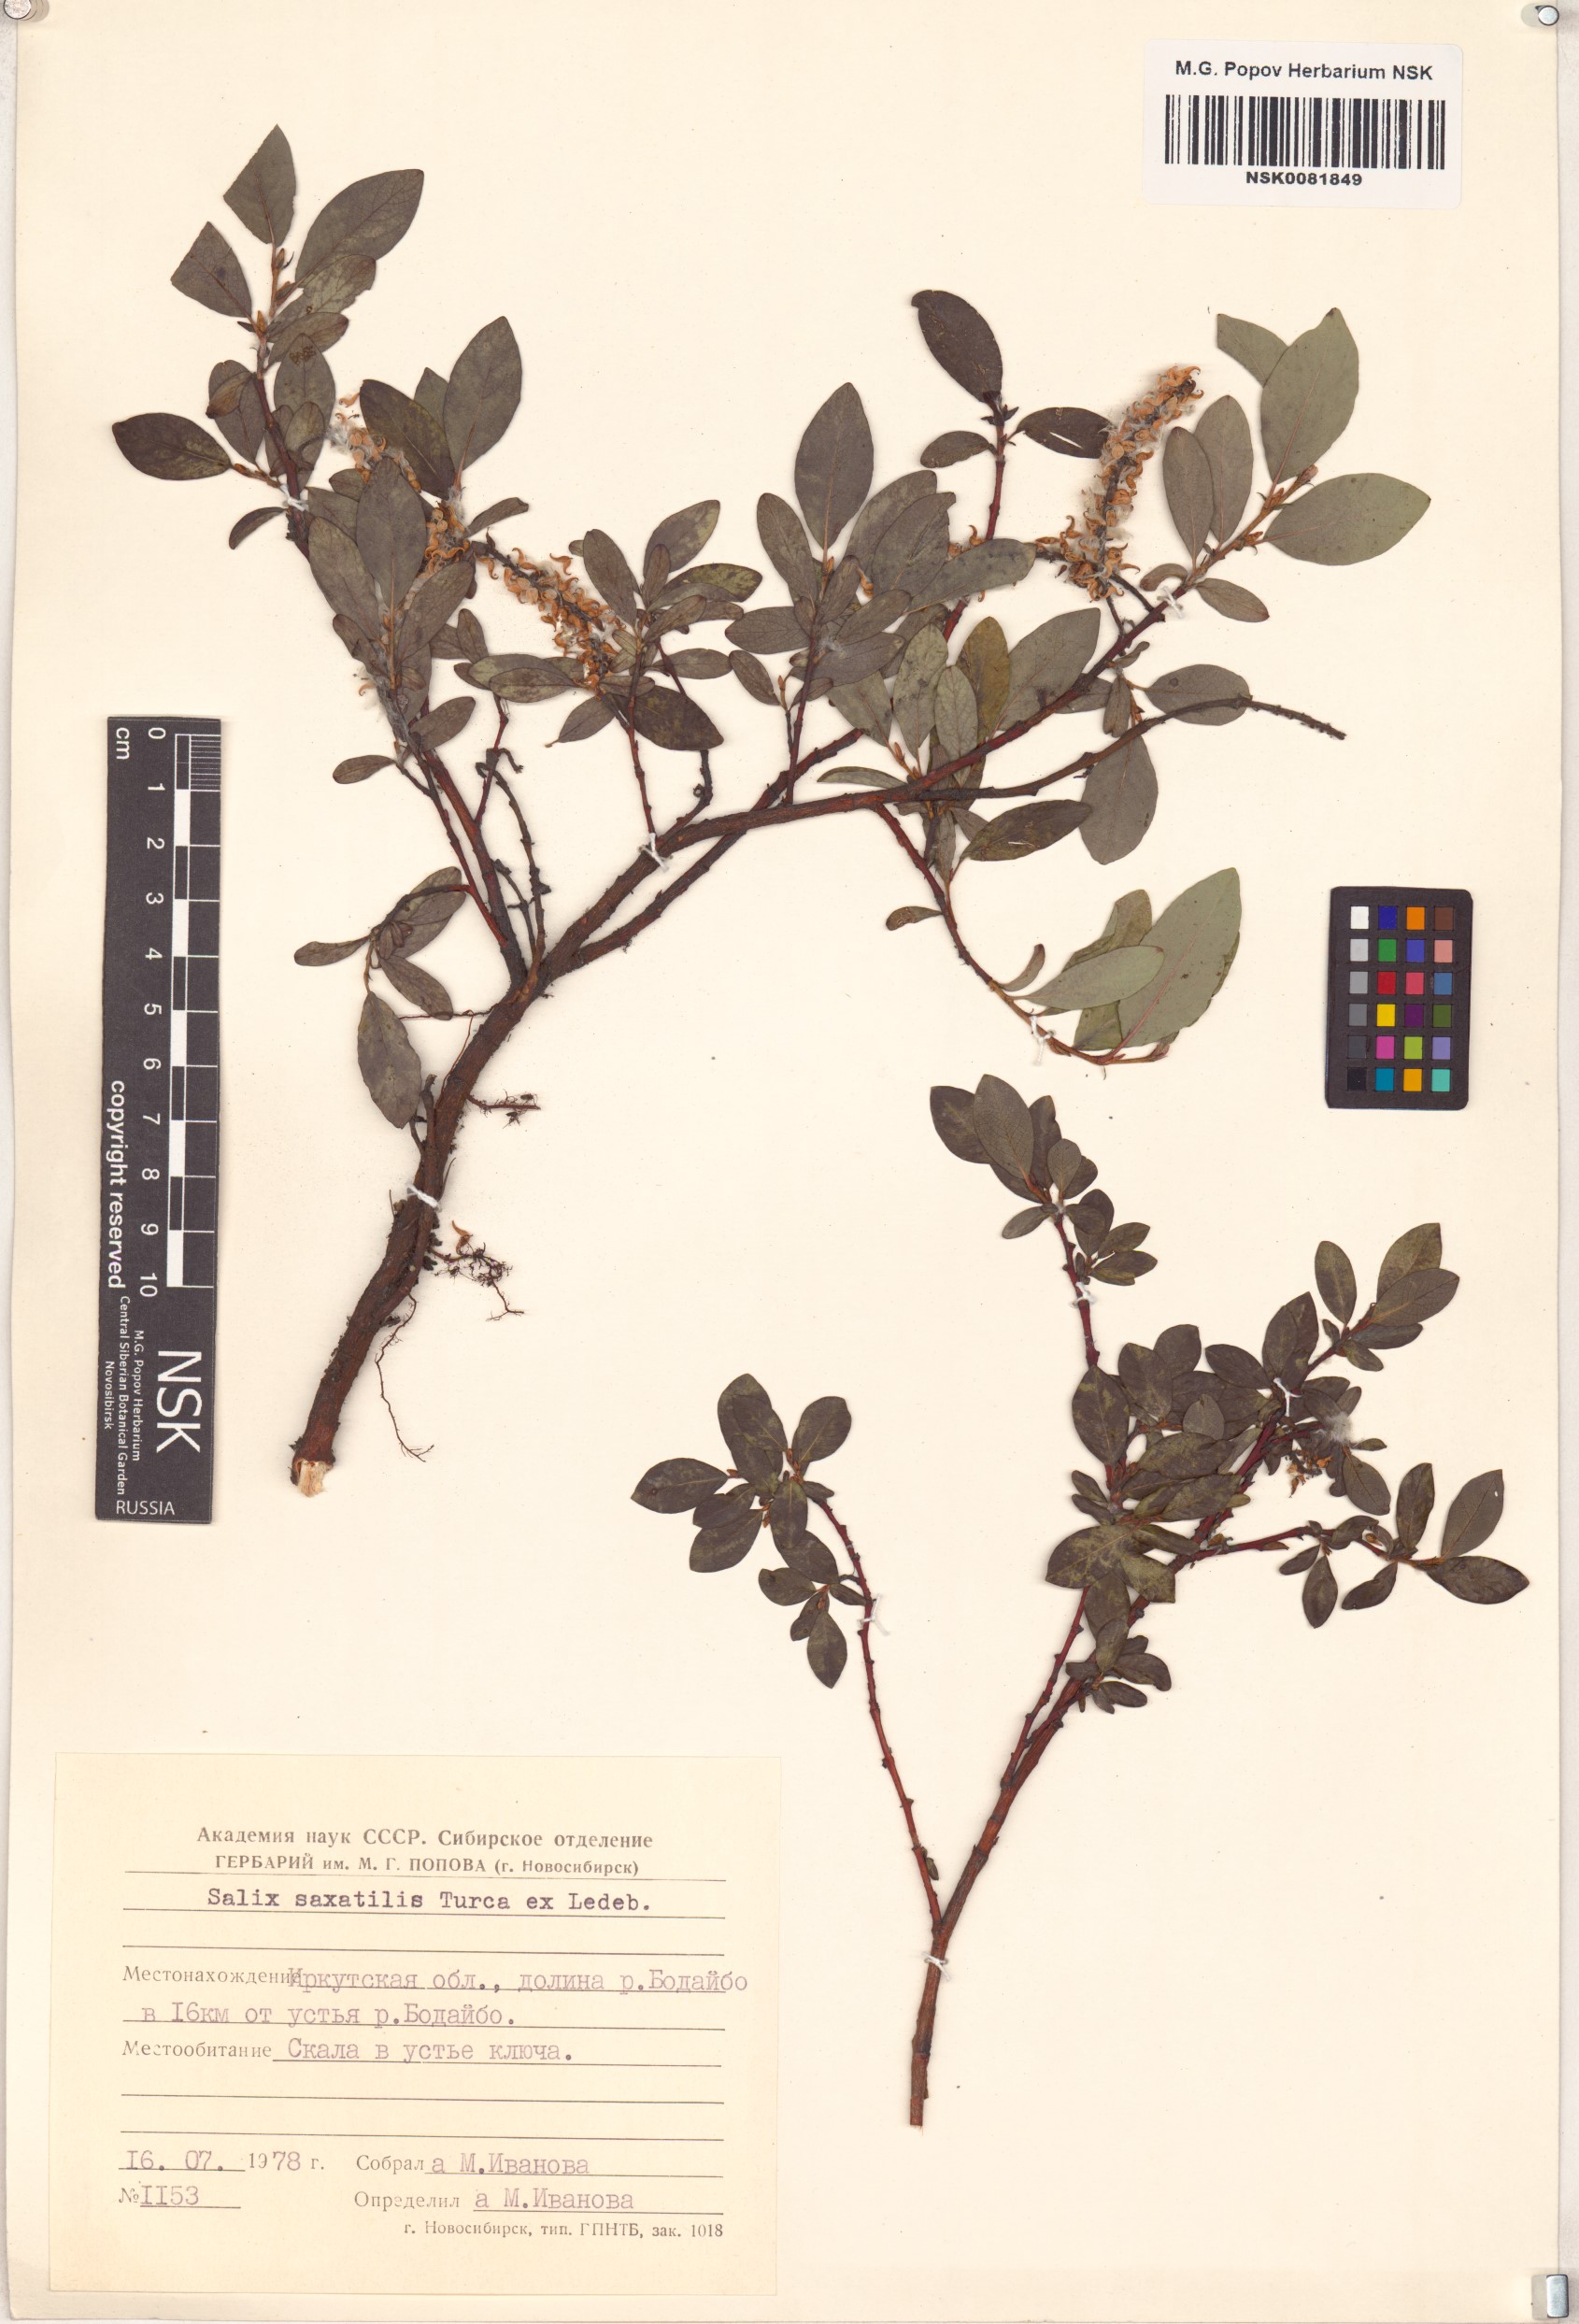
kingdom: Plantae
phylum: Tracheophyta
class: Magnoliopsida
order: Malpighiales
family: Salicaceae
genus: Salix
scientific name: Salix saxatilis
